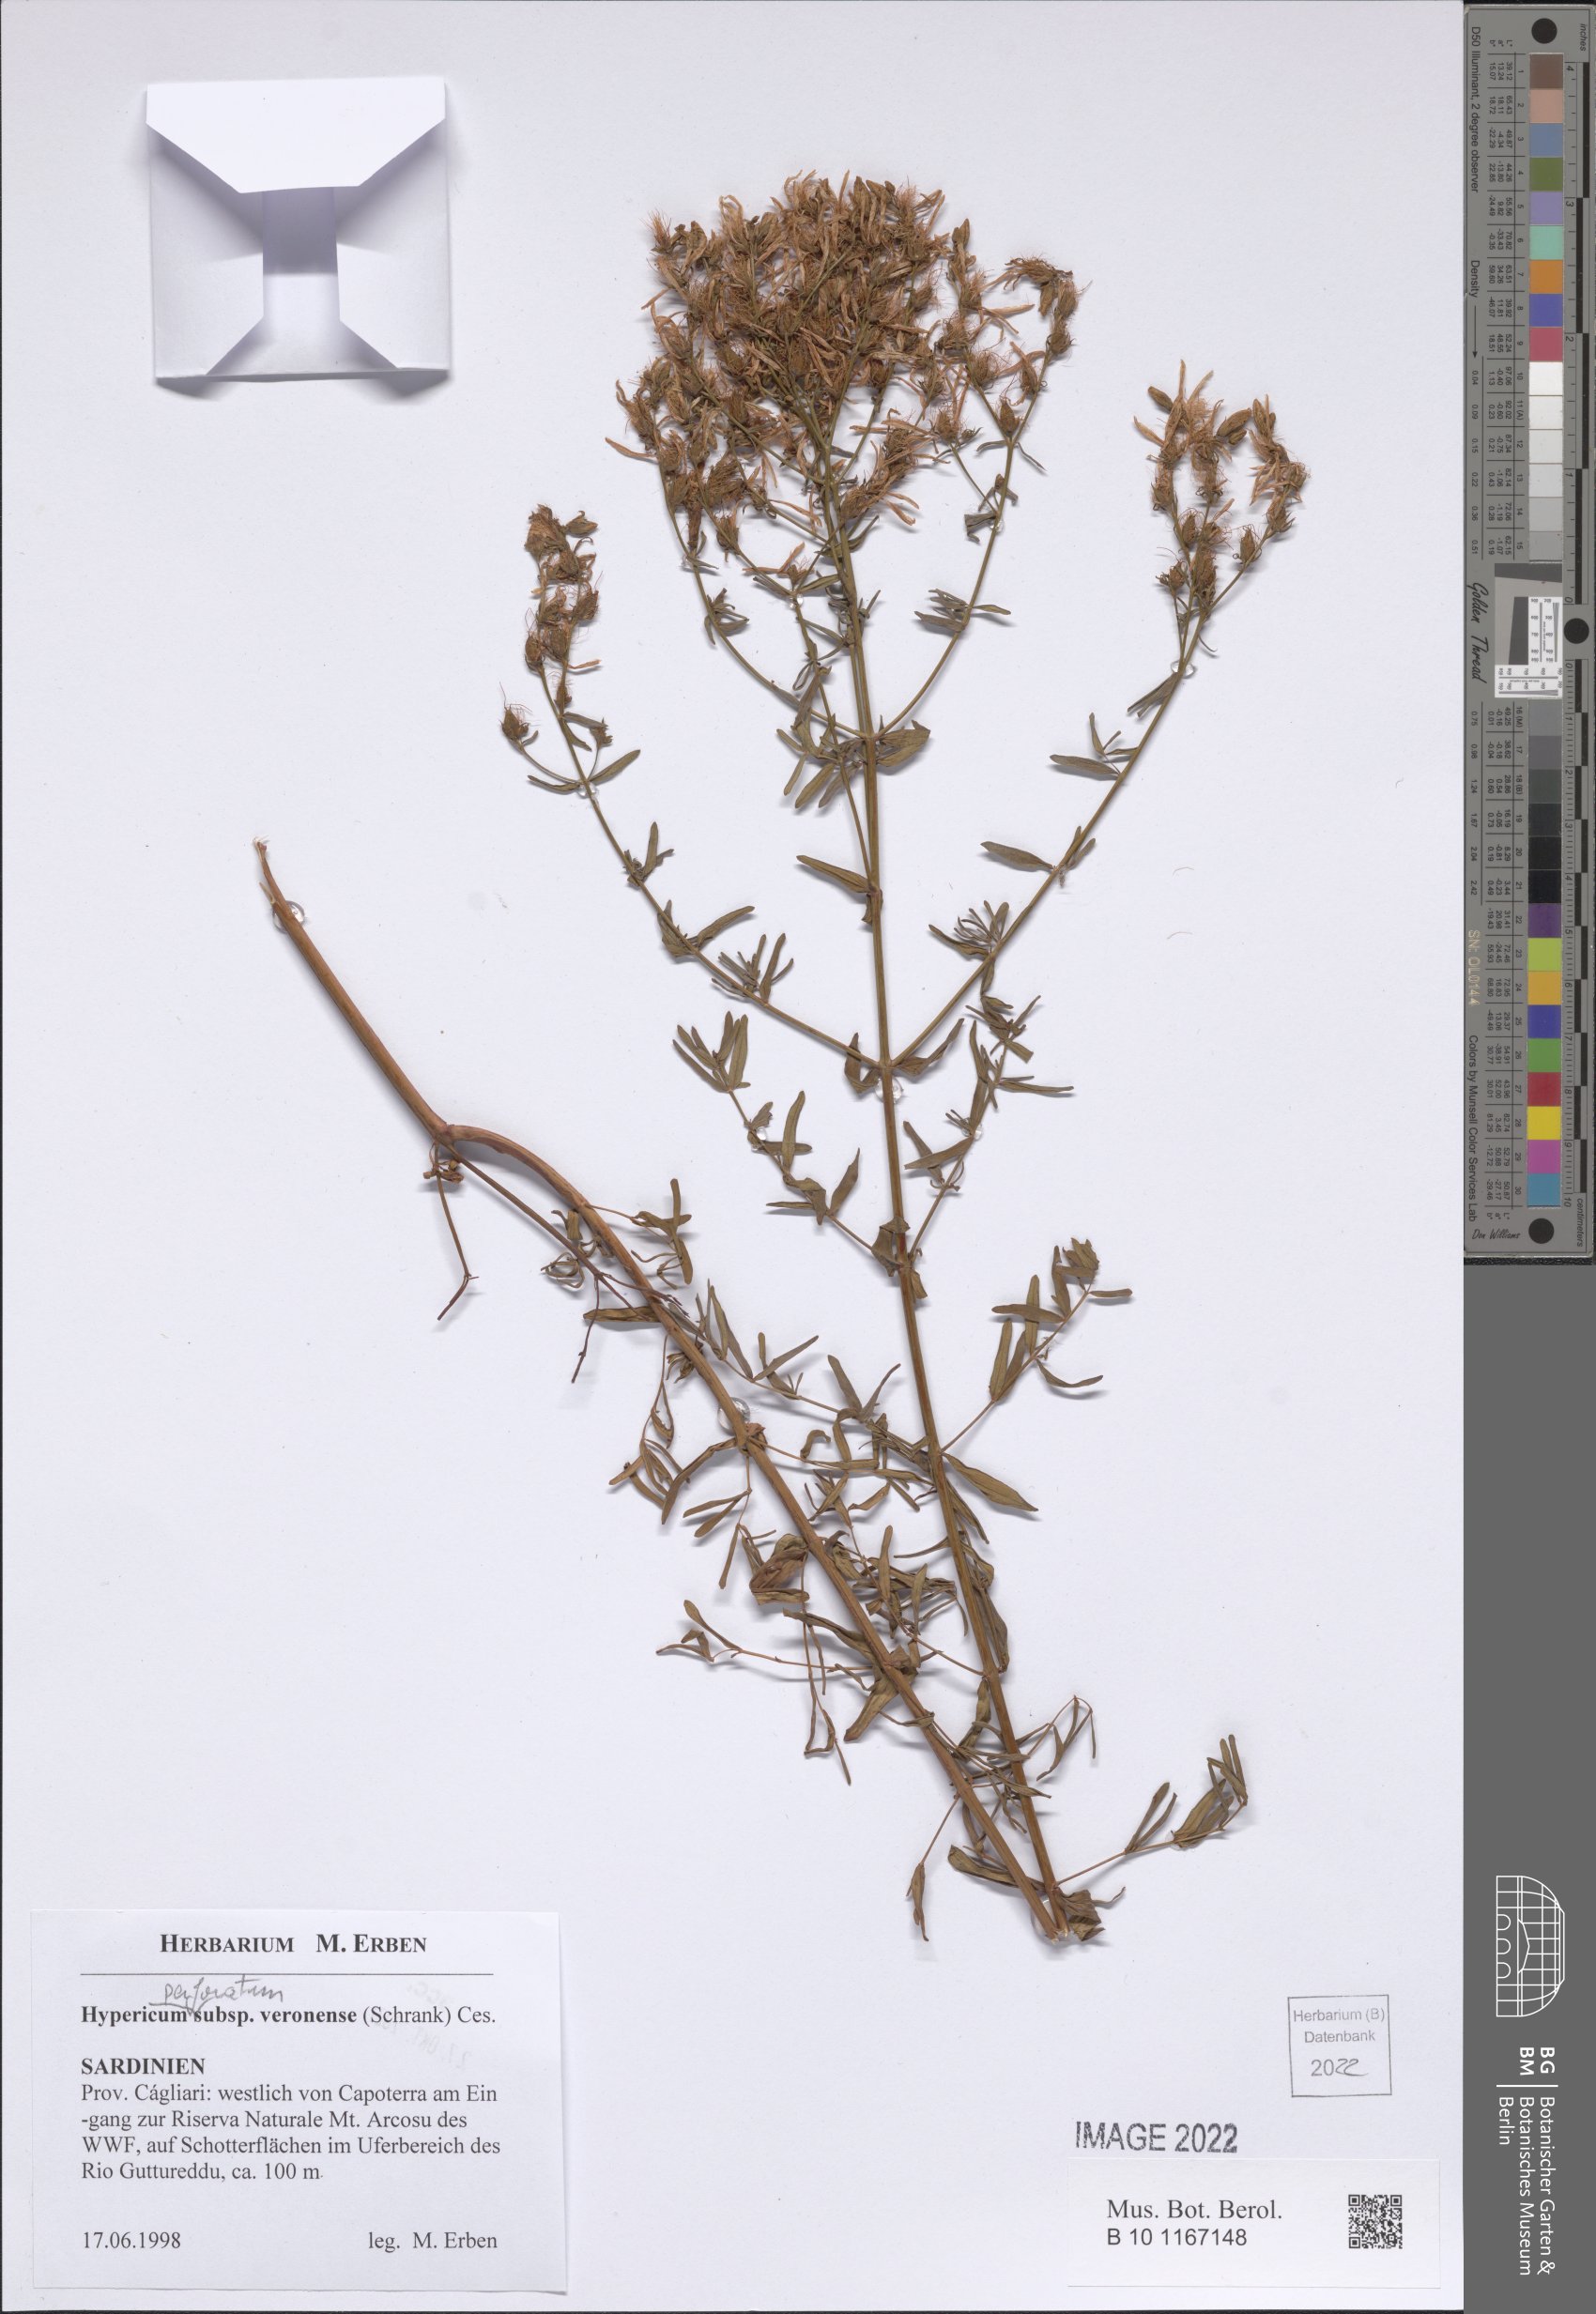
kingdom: Plantae
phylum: Tracheophyta
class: Magnoliopsida
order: Malpighiales
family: Hypericaceae
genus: Hypericum
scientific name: Hypericum veronense
